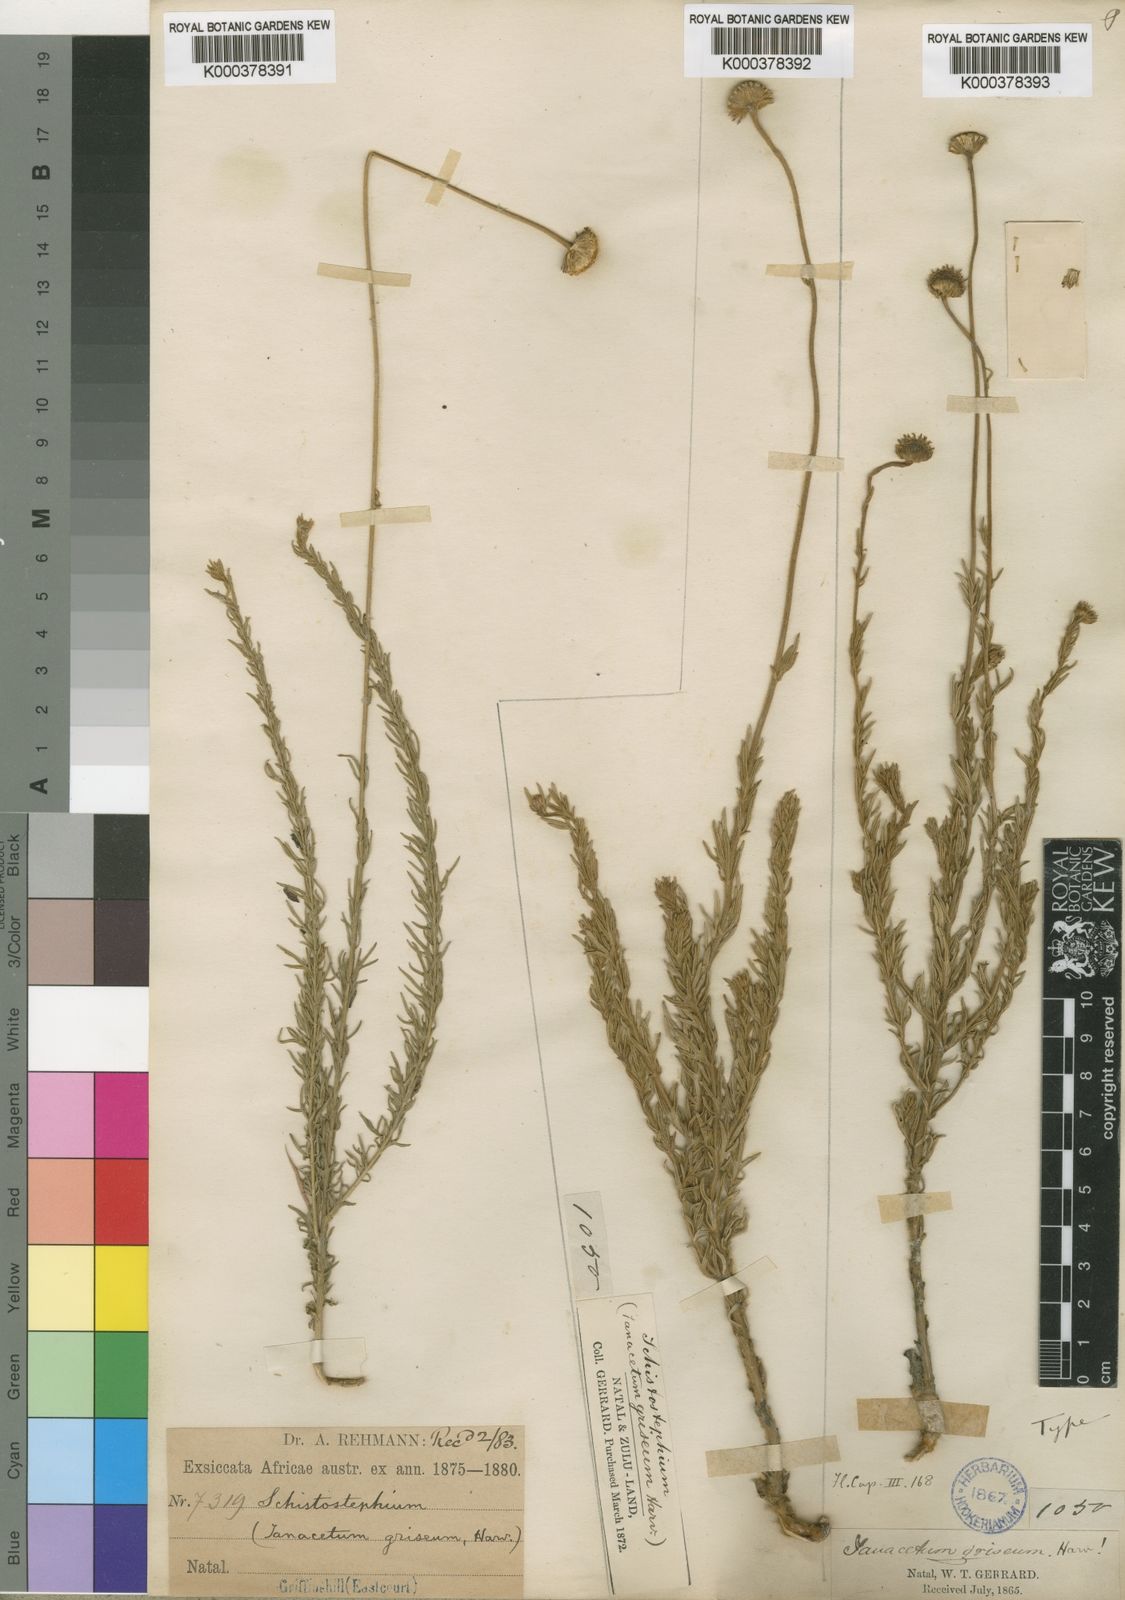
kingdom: Plantae
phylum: Tracheophyta
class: Magnoliopsida
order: Asterales
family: Asteraceae
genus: Schistostephium
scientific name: Schistostephium griseum
